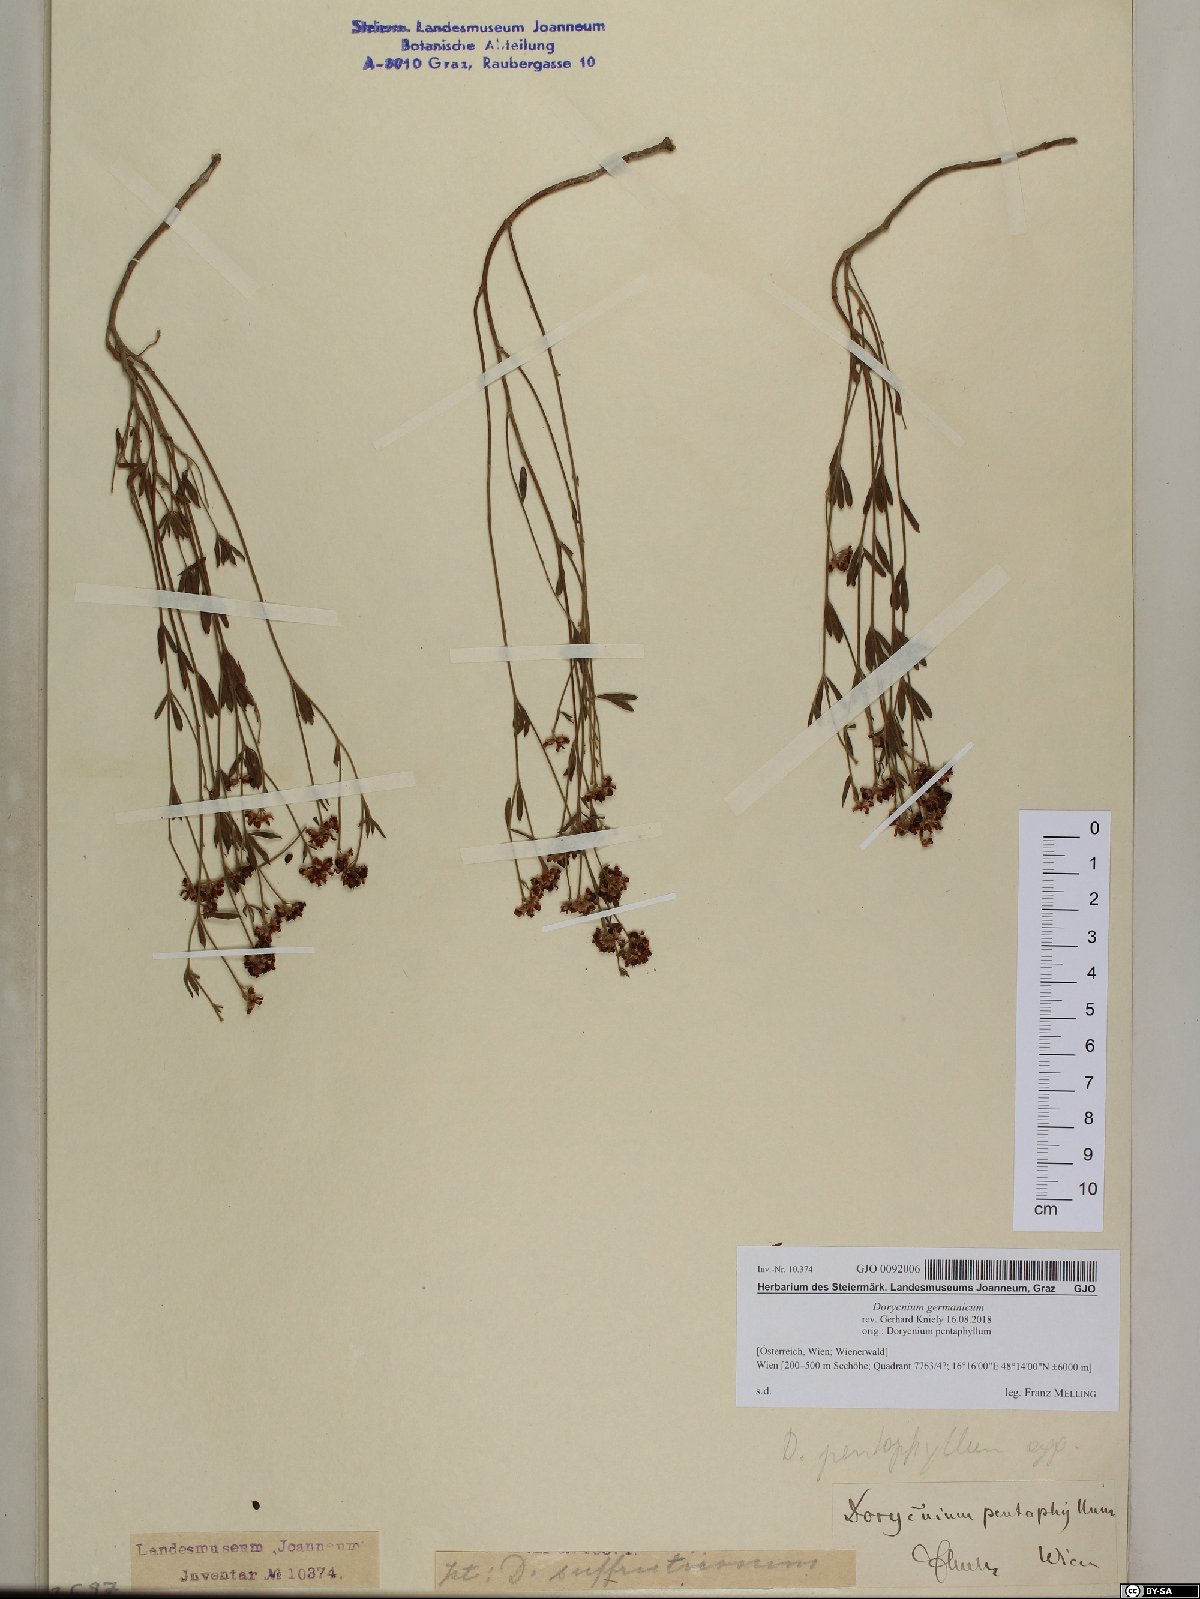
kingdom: Plantae
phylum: Tracheophyta
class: Magnoliopsida
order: Fabales
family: Fabaceae
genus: Lotus
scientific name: Lotus germanicus
